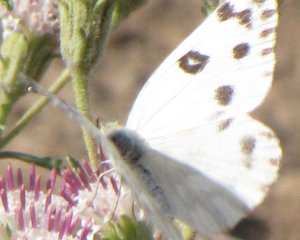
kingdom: Animalia
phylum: Arthropoda
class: Insecta
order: Lepidoptera
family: Pieridae
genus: Pontia
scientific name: Pontia beckerii
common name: Becker's White
